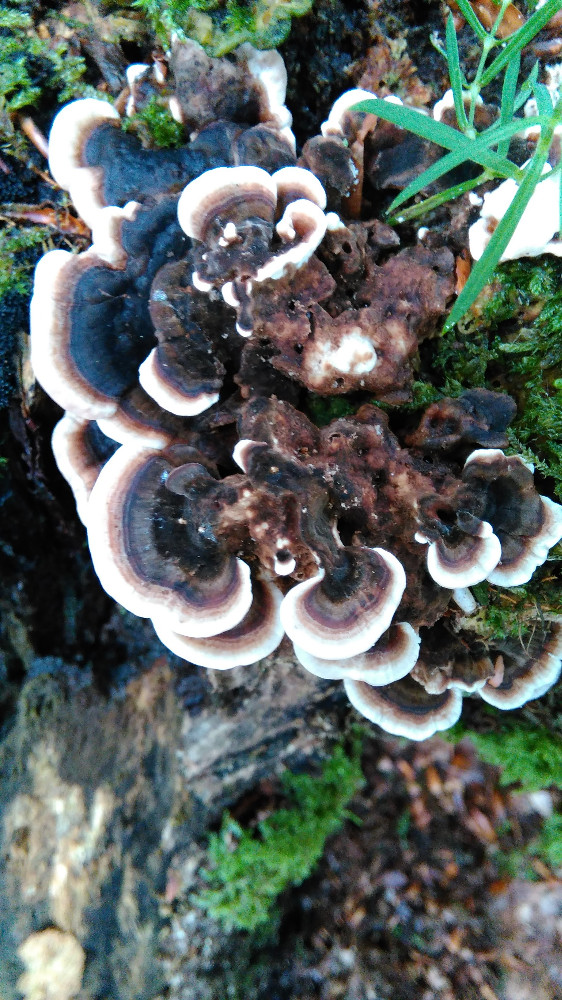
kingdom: Fungi
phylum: Basidiomycota
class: Agaricomycetes
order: Polyporales
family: Polyporaceae
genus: Trametes
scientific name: Trametes versicolor
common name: broget læderporesvamp
